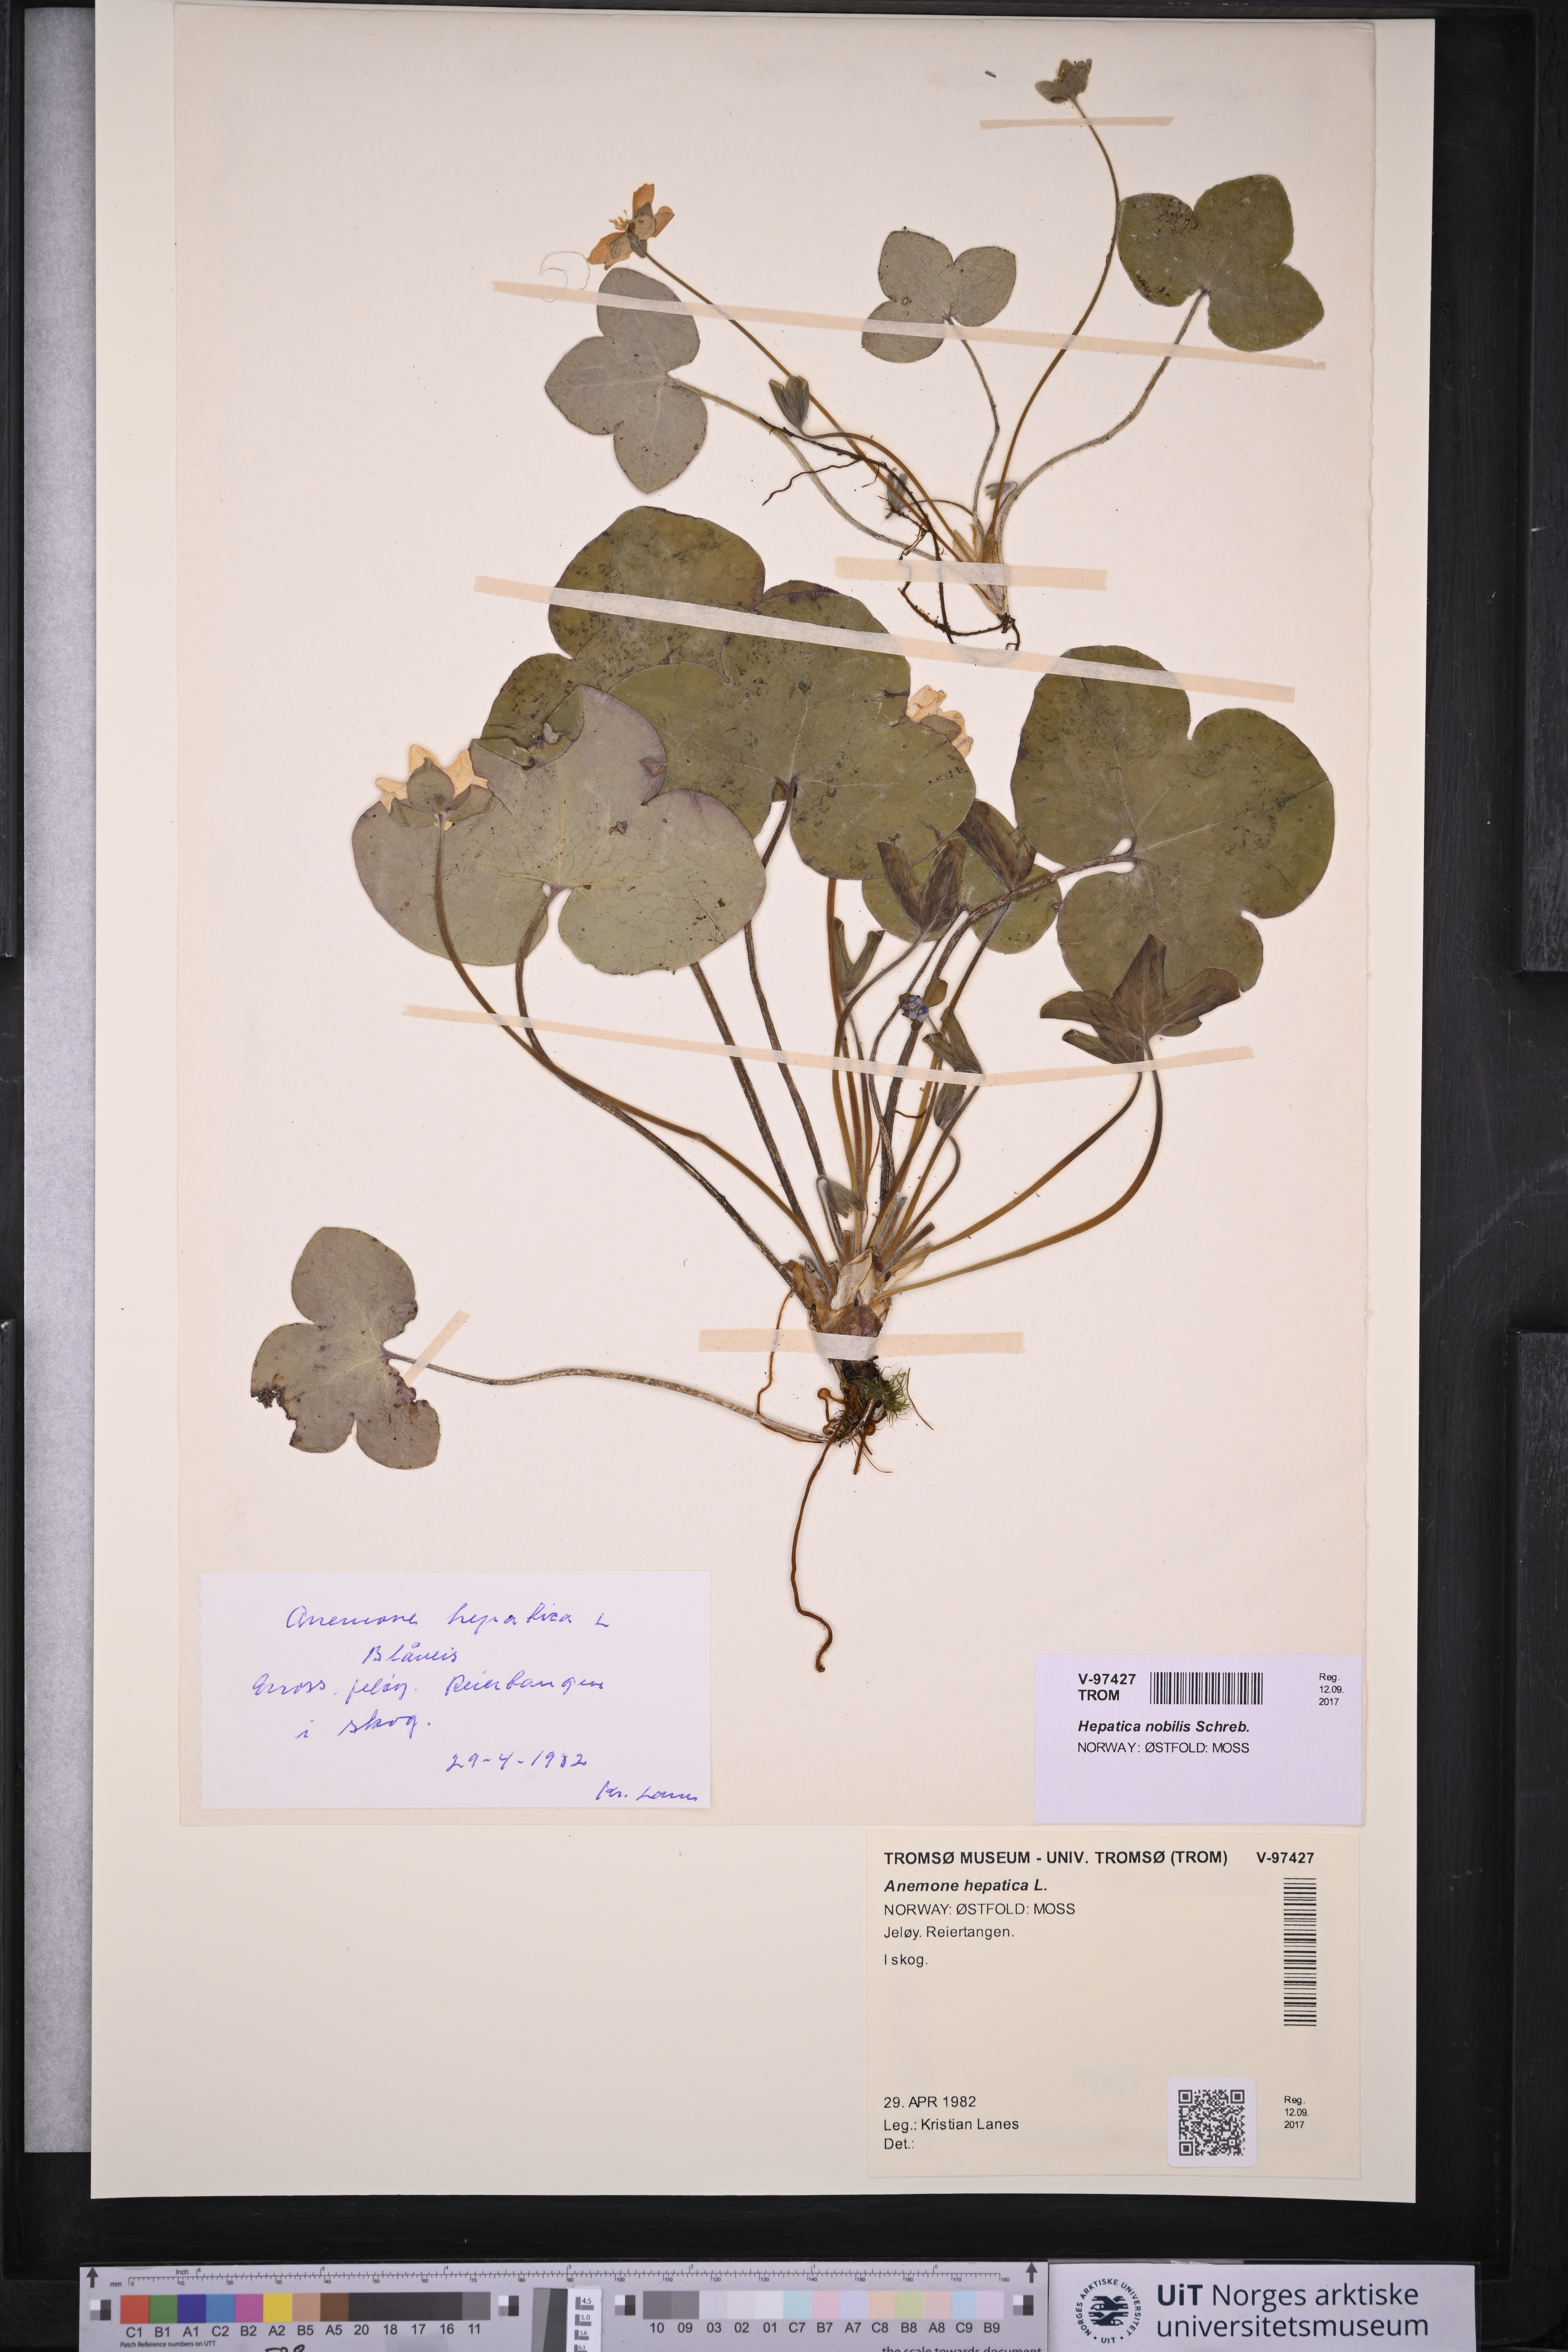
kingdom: Plantae
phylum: Tracheophyta
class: Magnoliopsida
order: Ranunculales
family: Ranunculaceae
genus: Hepatica
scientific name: Hepatica nobilis
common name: Liverleaf
